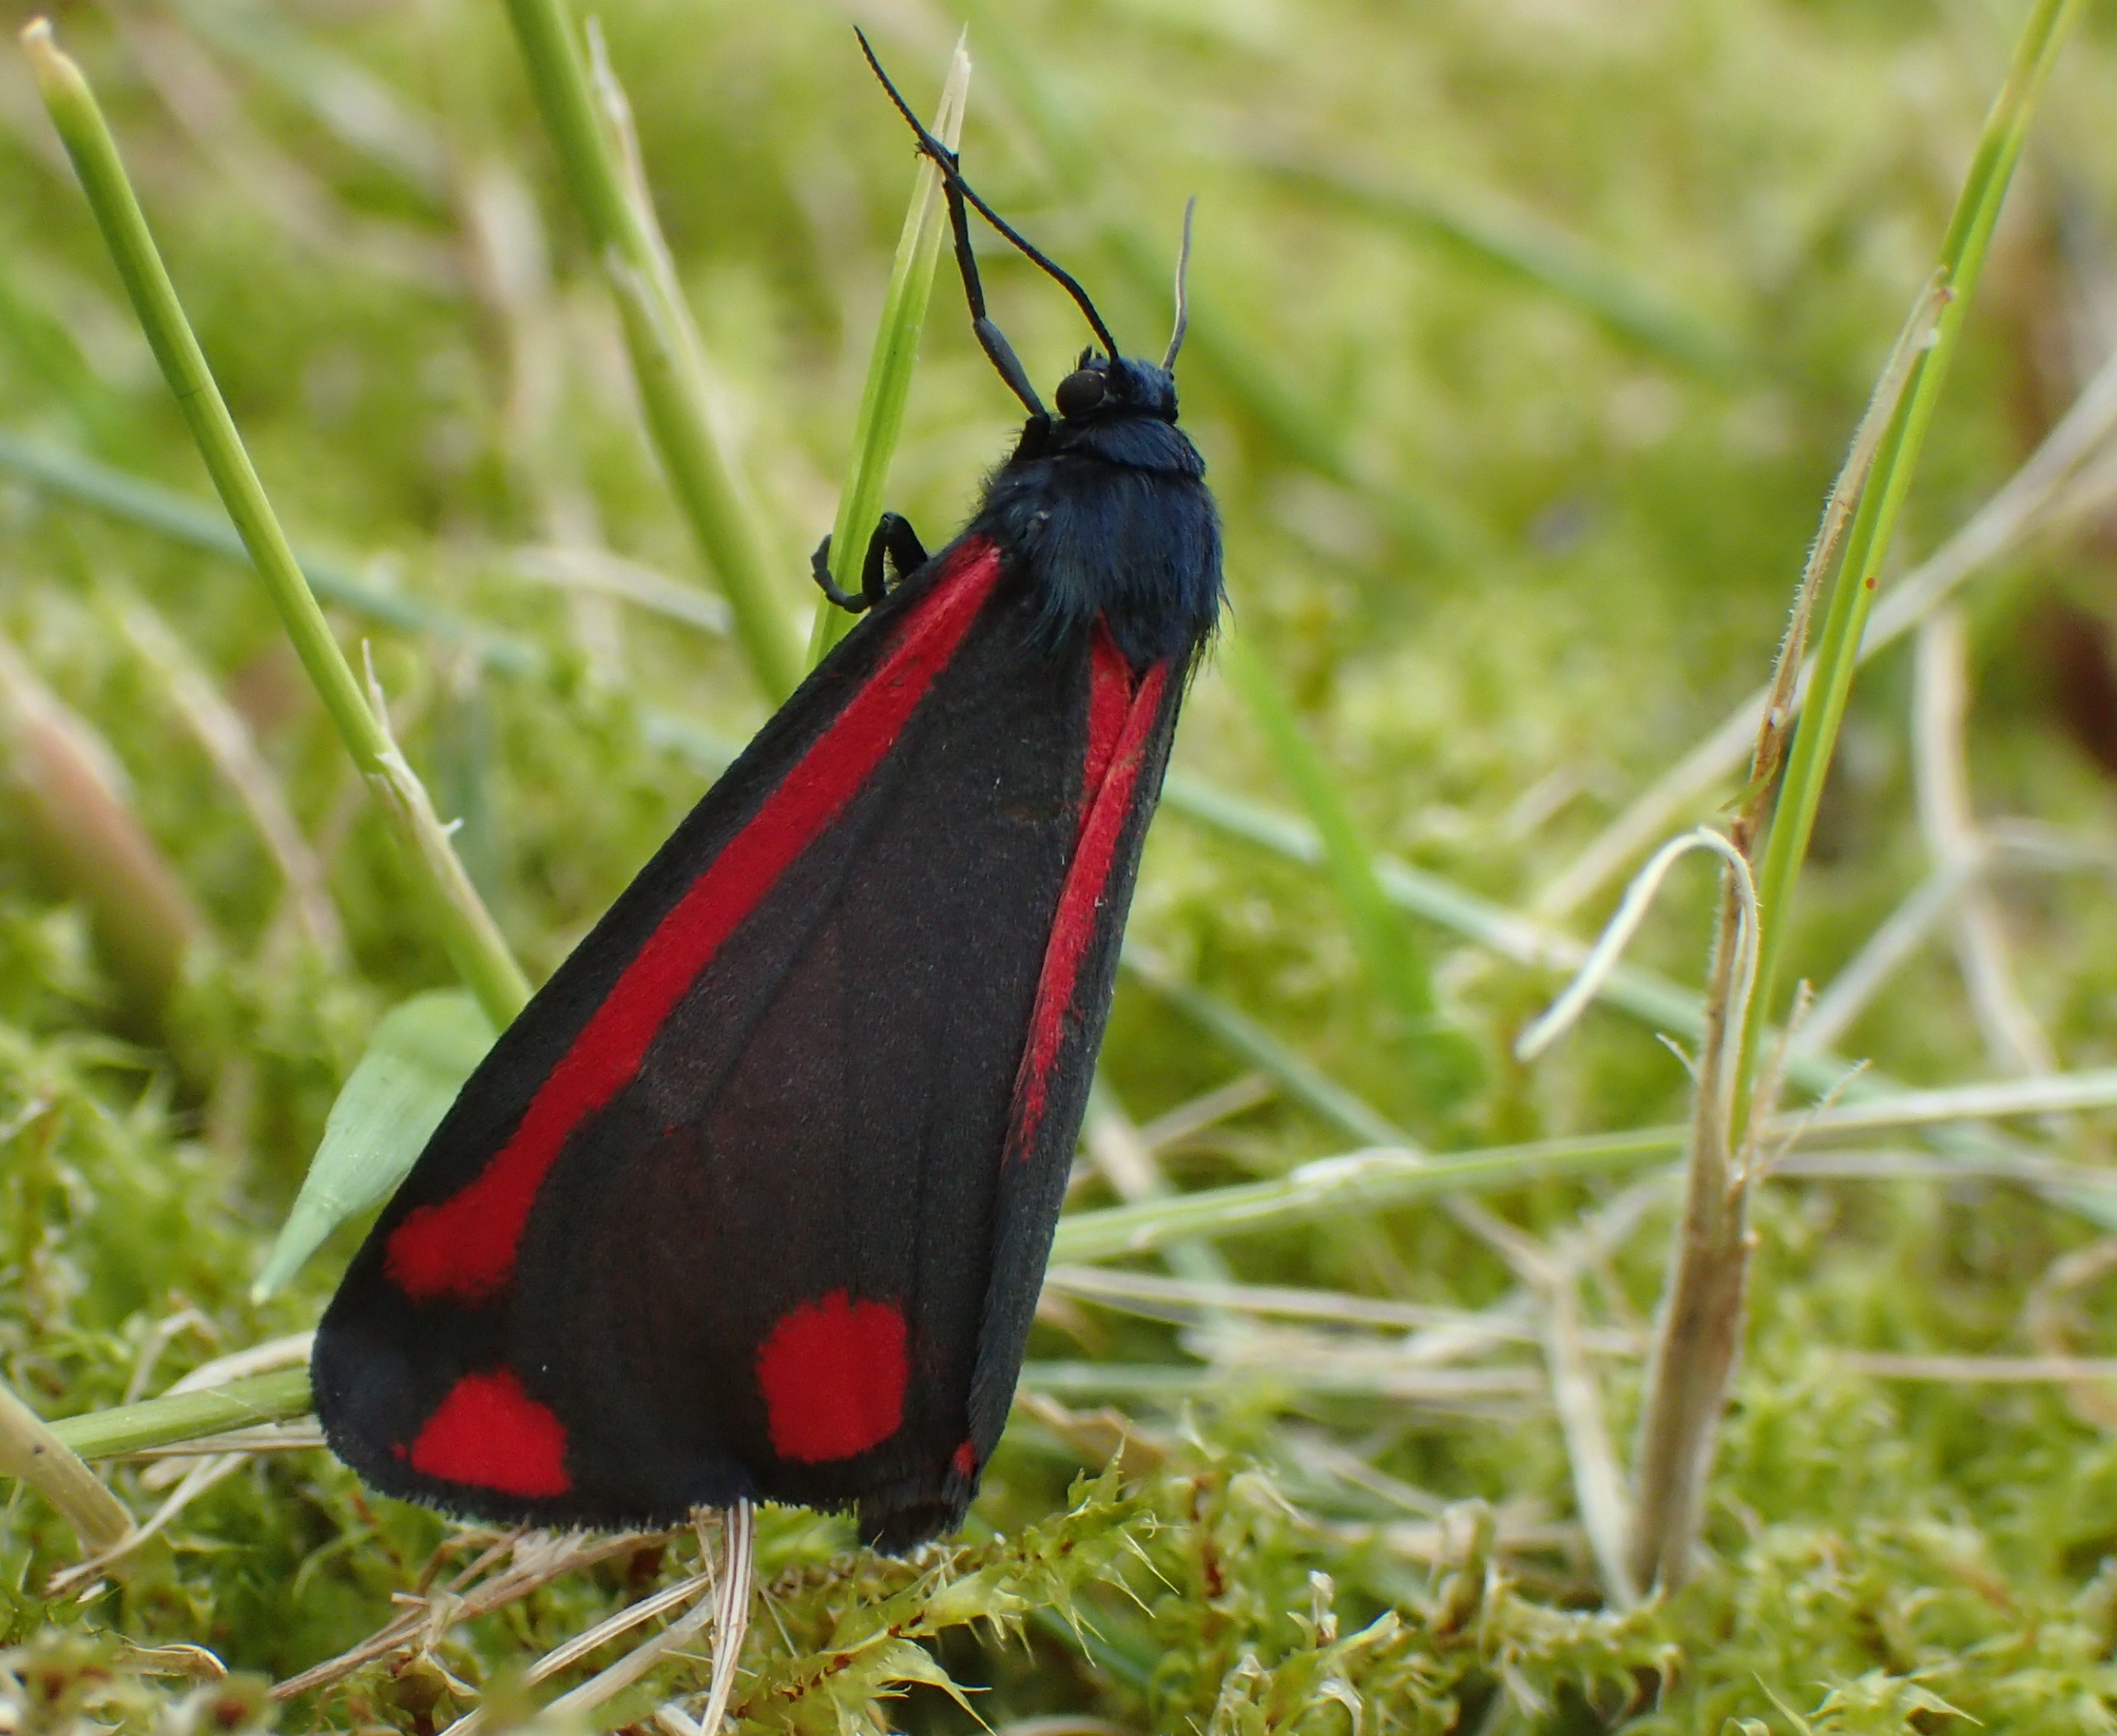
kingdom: Animalia
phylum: Arthropoda
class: Insecta
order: Lepidoptera
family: Erebidae
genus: Tyria
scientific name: Tyria jacobaeae
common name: Blodplet
